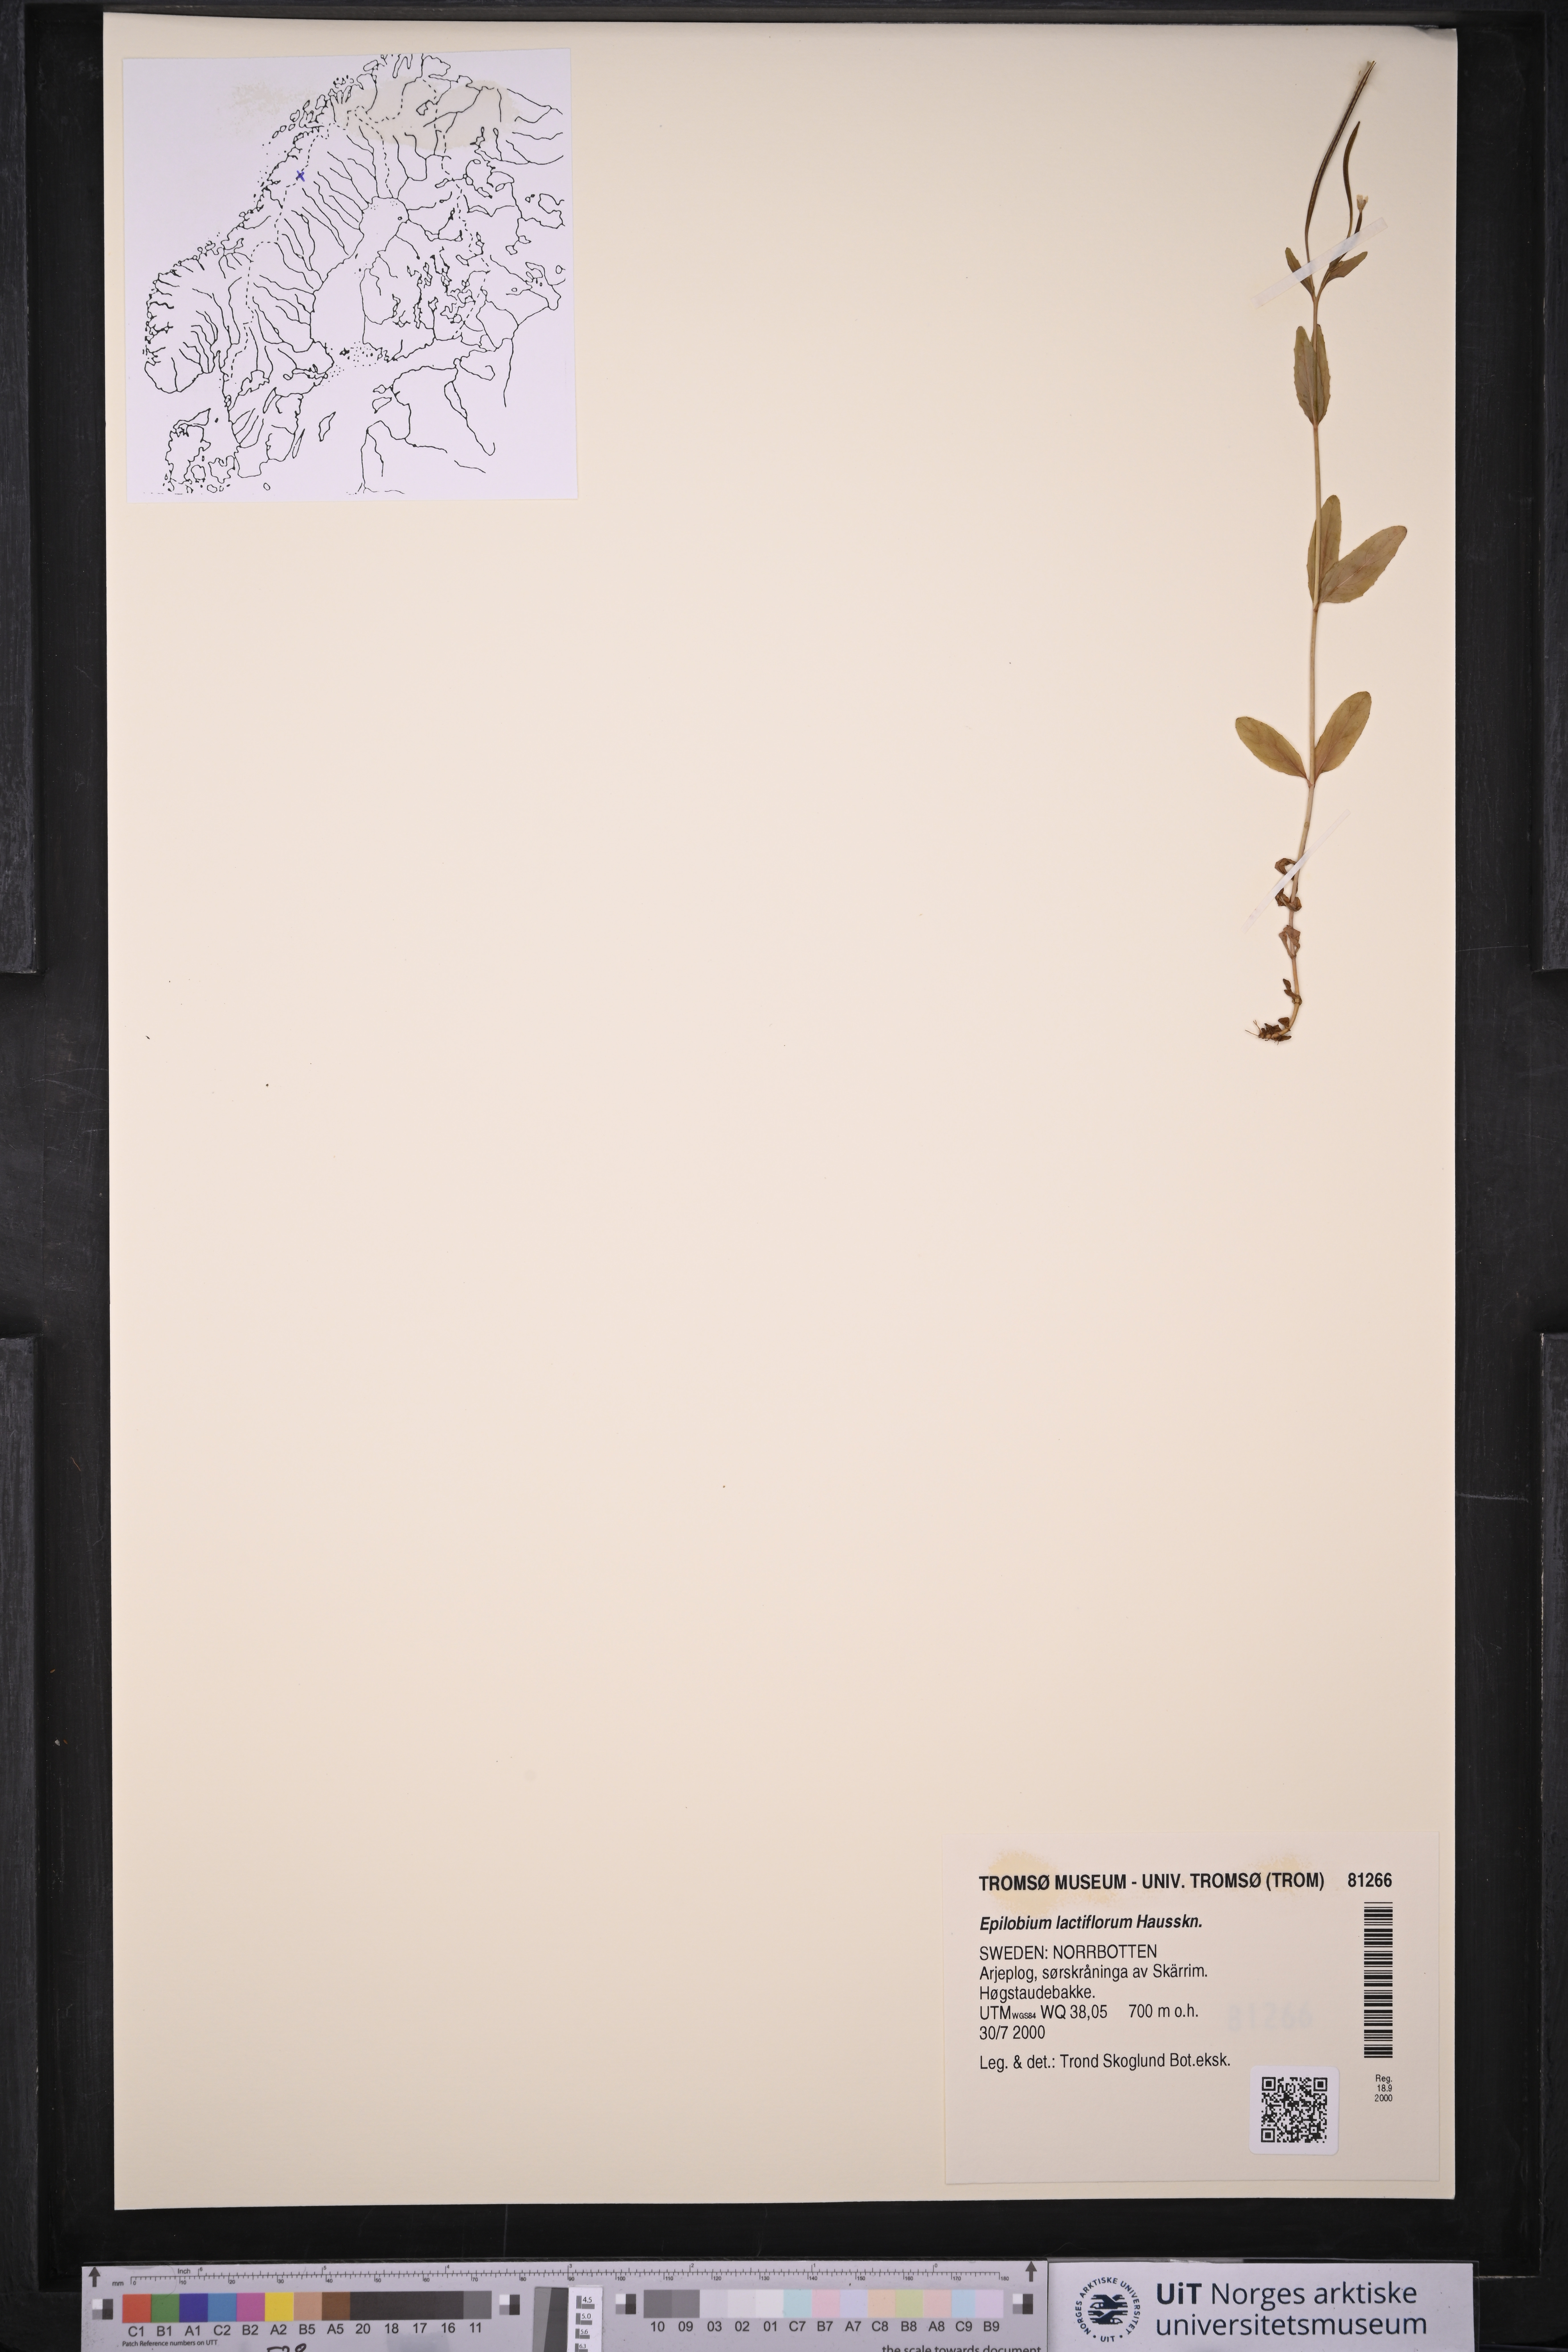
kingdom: Plantae
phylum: Tracheophyta
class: Magnoliopsida
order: Myrtales
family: Onagraceae
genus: Epilobium
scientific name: Epilobium lactiflorum
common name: Milkflower willowherb
